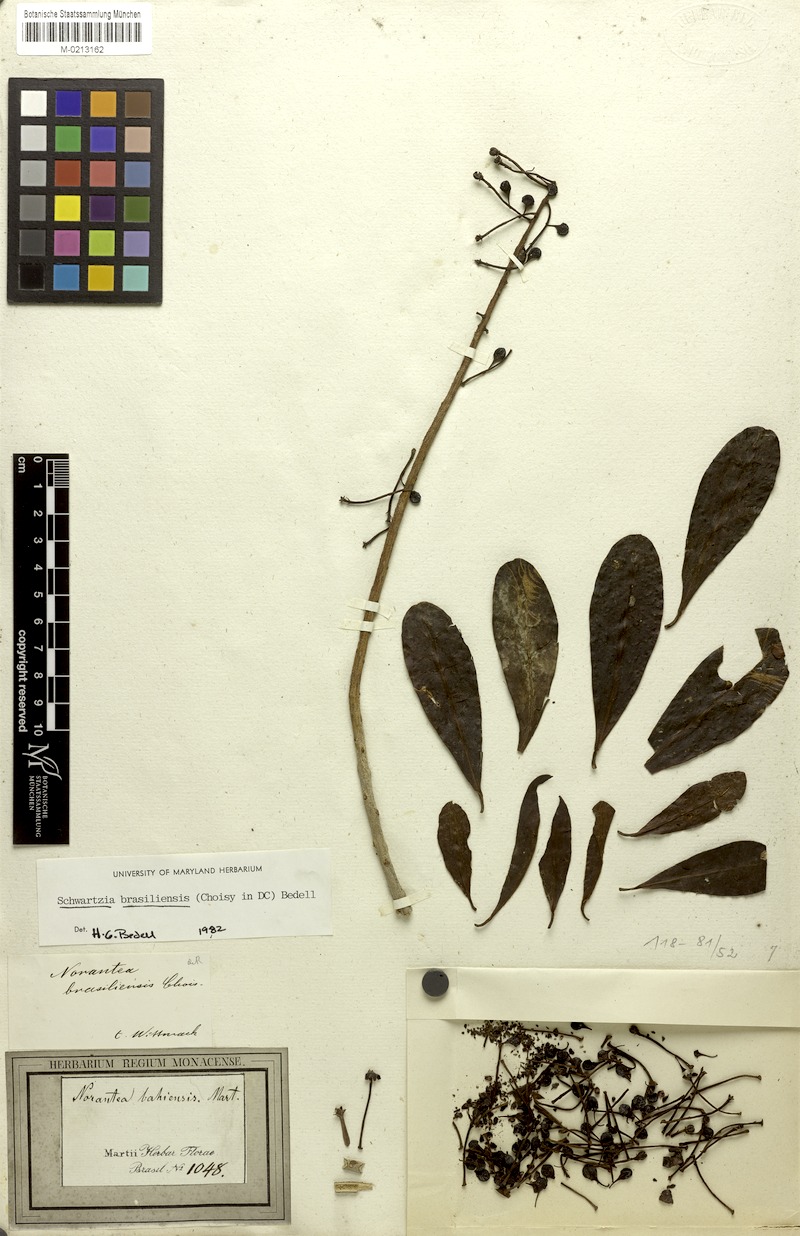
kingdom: Plantae
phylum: Tracheophyta
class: Magnoliopsida
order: Ericales
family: Marcgraviaceae
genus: Schwartzia
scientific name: Schwartzia brasiliensis
